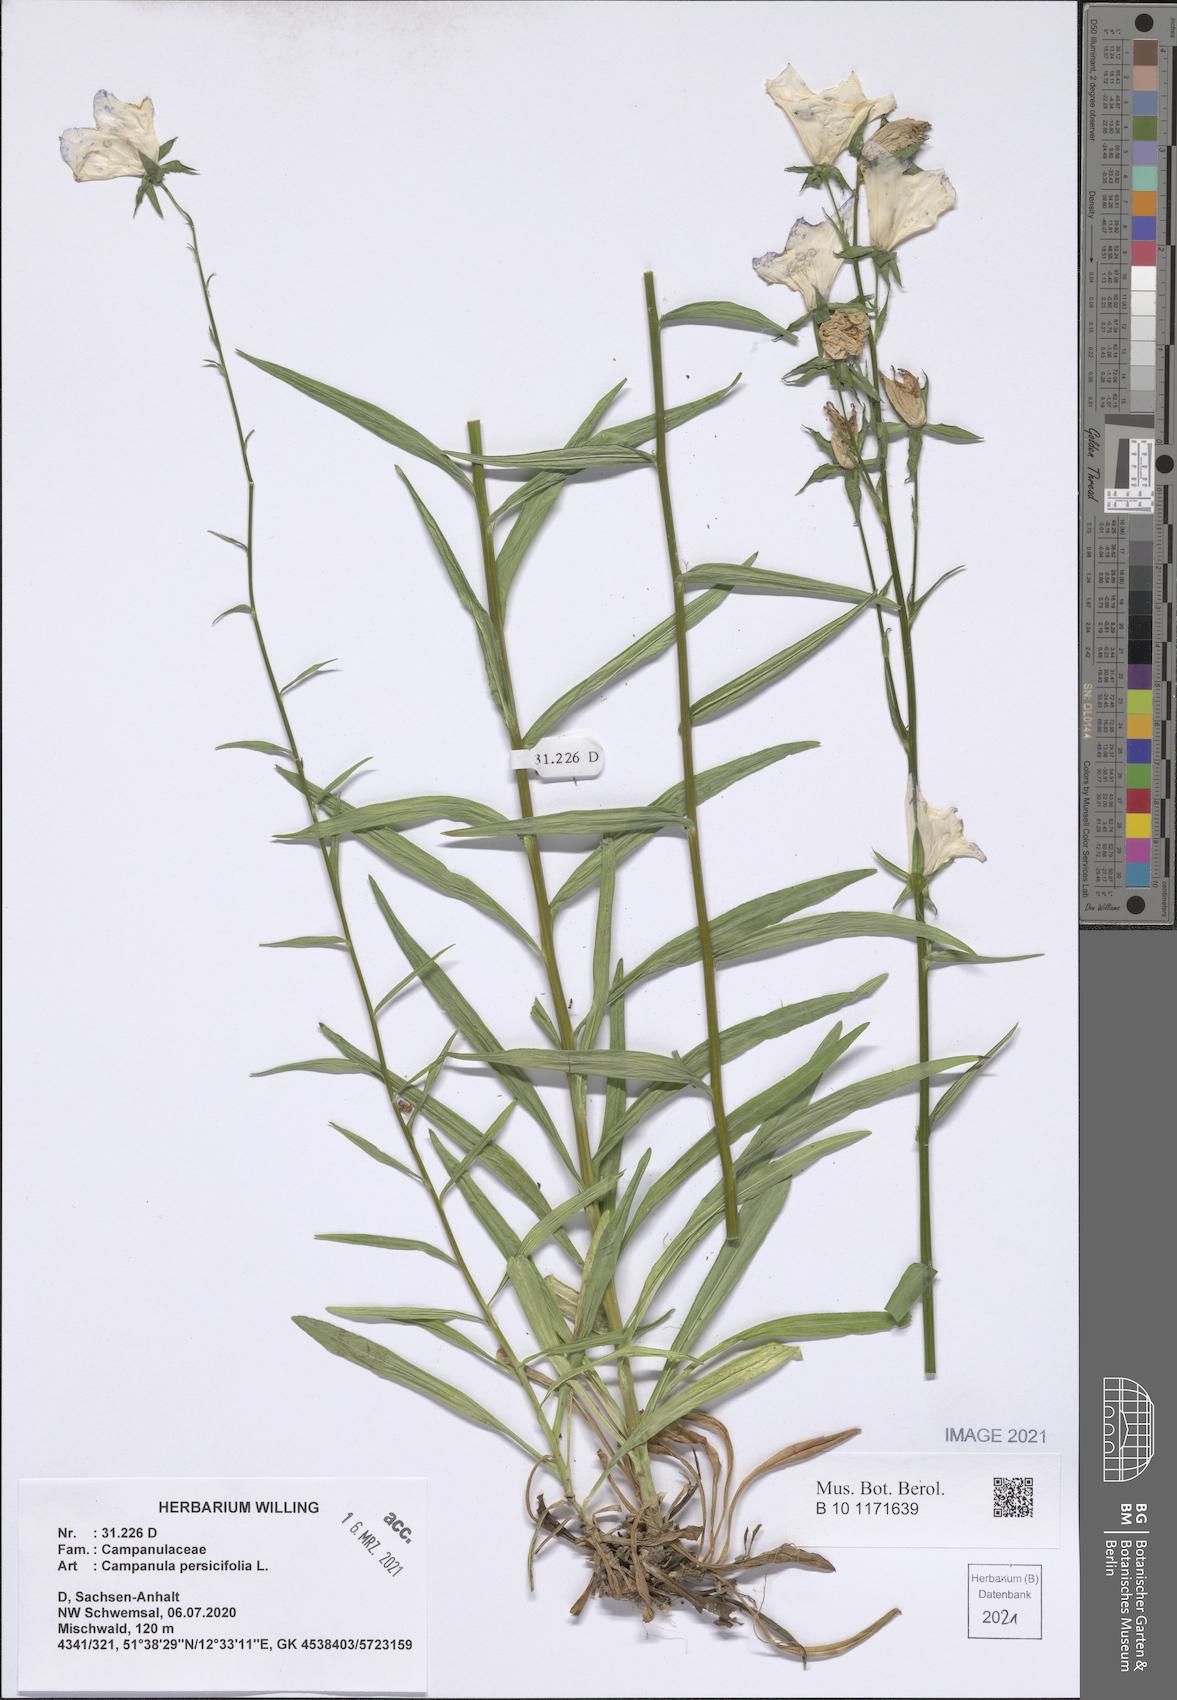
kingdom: Plantae
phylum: Tracheophyta
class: Magnoliopsida
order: Asterales
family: Campanulaceae
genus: Campanula
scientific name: Campanula persicifolia
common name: Peach-leaved bellflower
